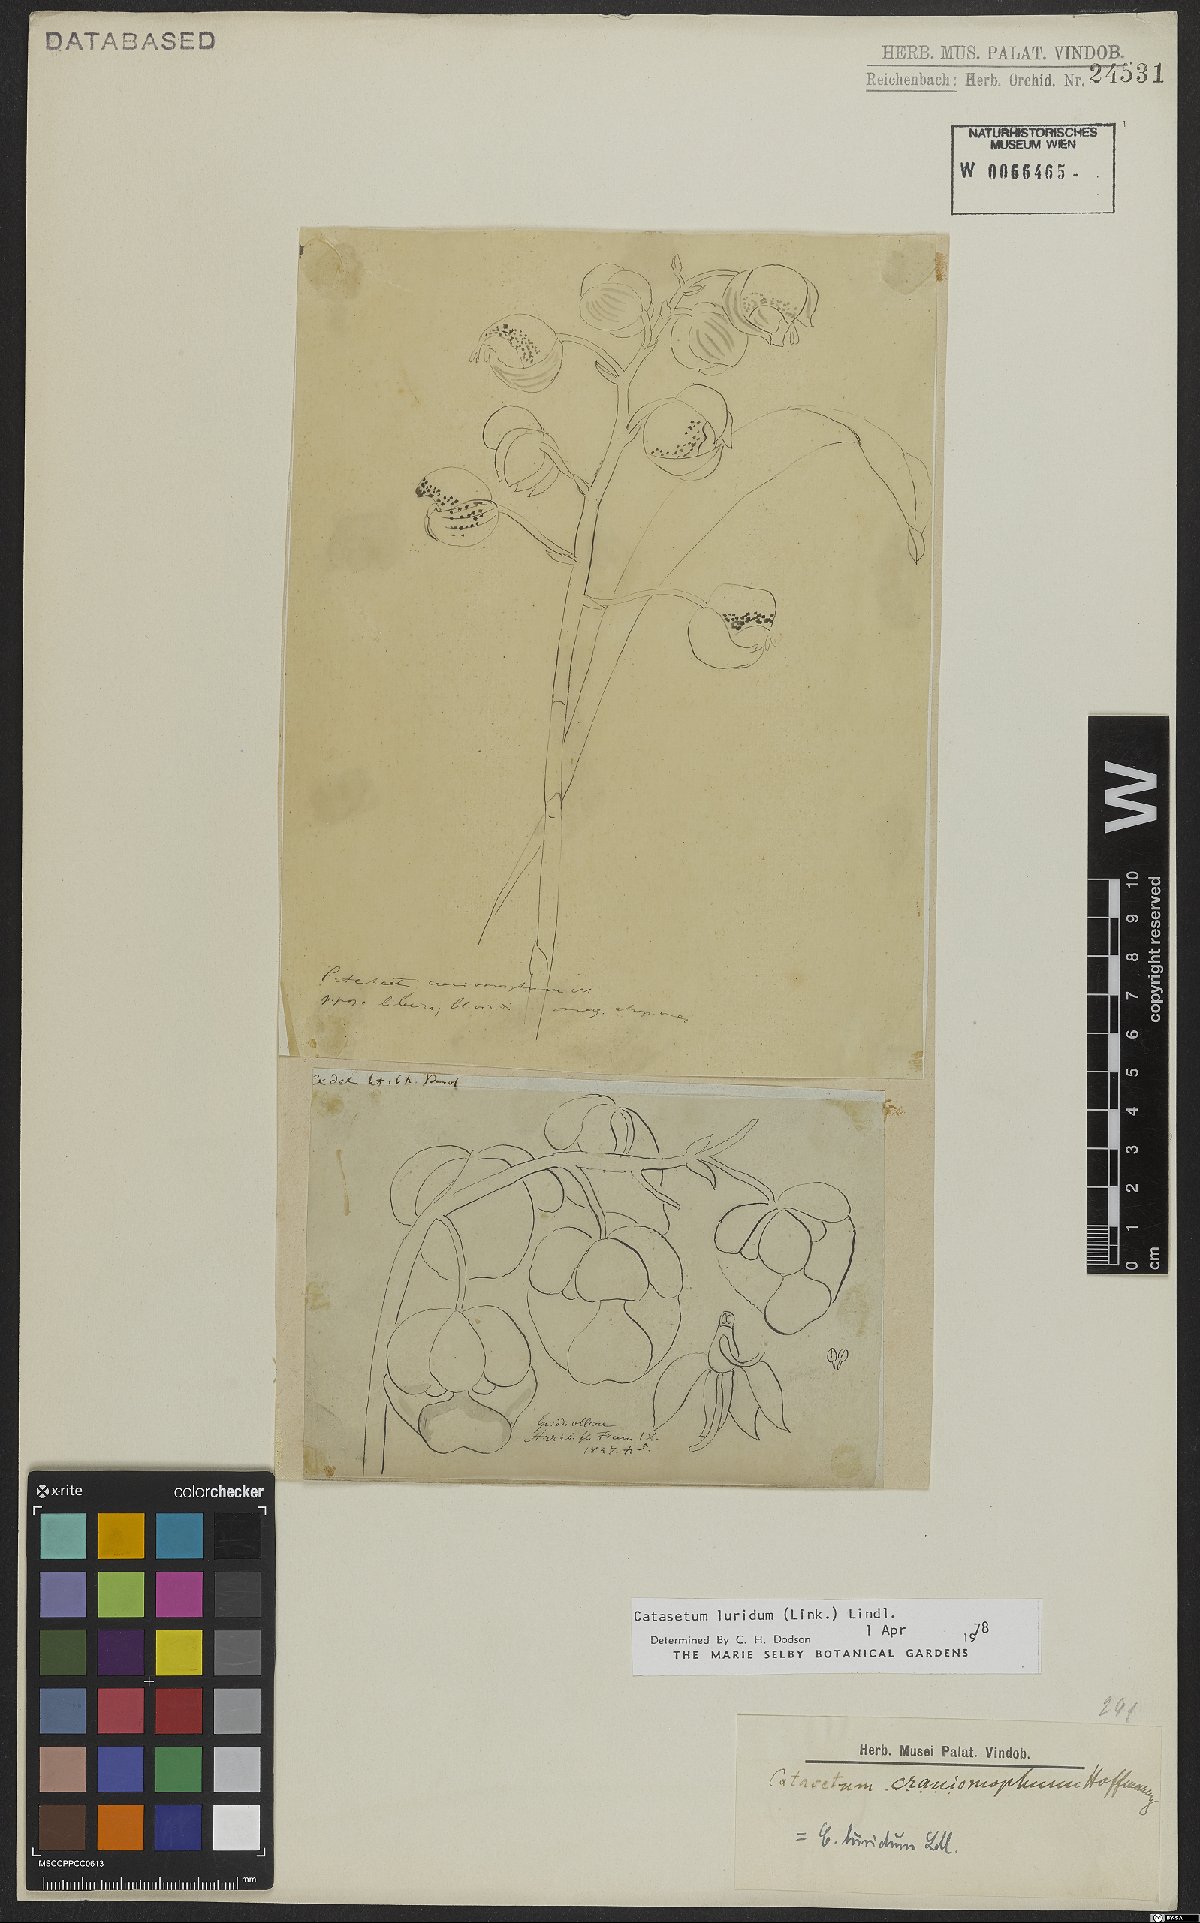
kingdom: Plantae
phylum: Tracheophyta
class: Liliopsida
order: Asparagales
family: Orchidaceae
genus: Catasetum
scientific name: Catasetum luridum
